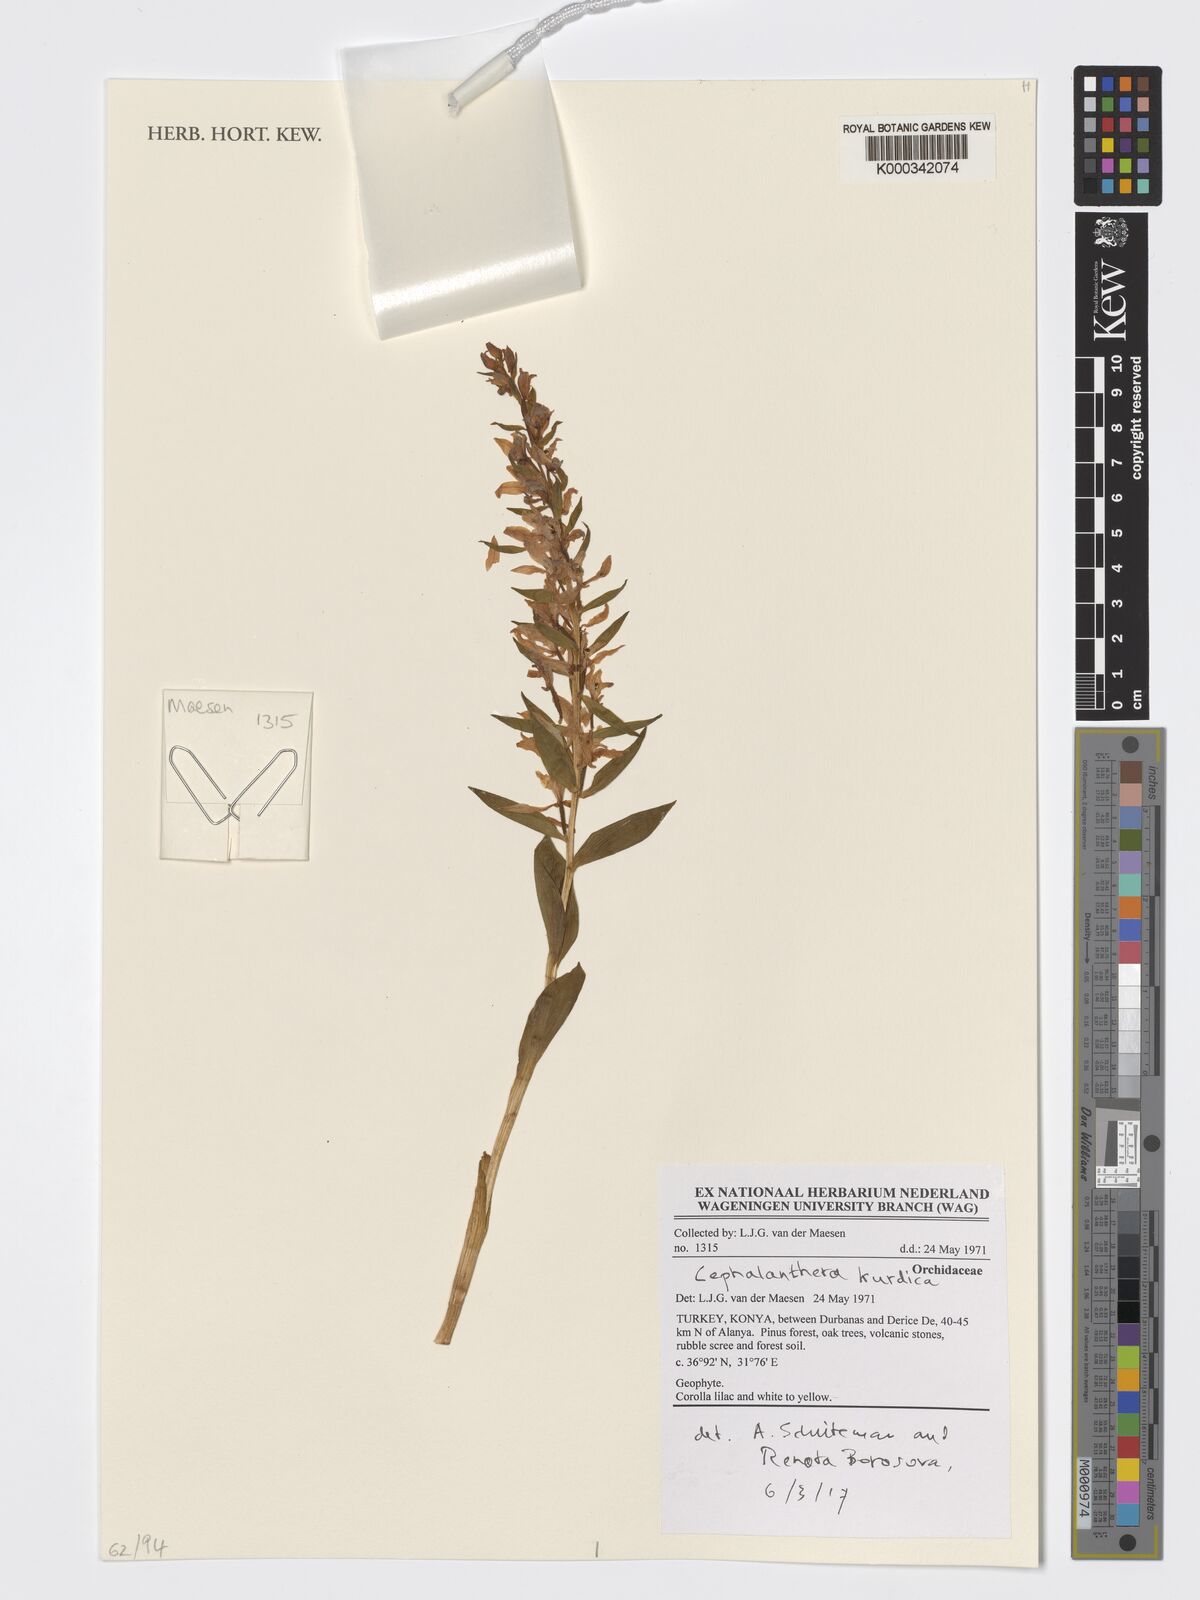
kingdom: Plantae
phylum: Tracheophyta
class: Liliopsida
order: Asparagales
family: Orchidaceae
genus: Cephalanthera
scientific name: Cephalanthera kurdica
